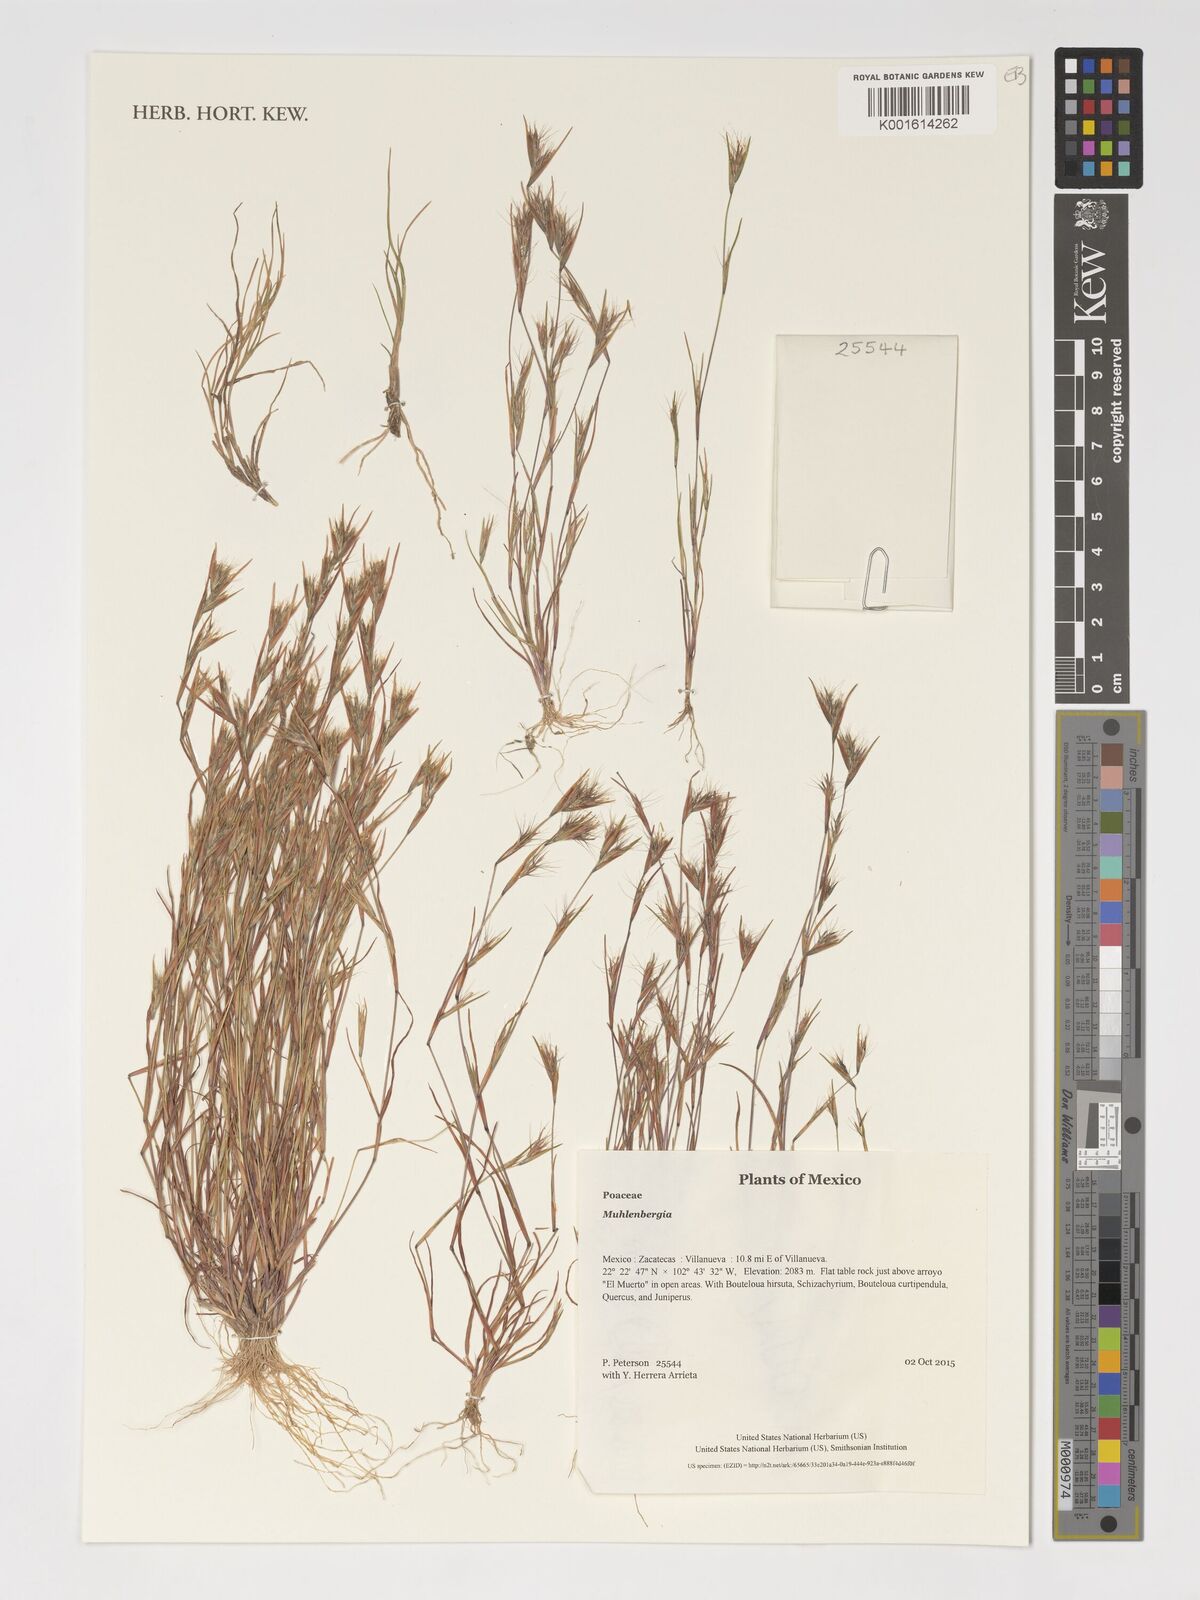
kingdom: Plantae
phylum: Tracheophyta
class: Liliopsida
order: Poales
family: Poaceae
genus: Muhlenbergia
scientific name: Muhlenbergia
